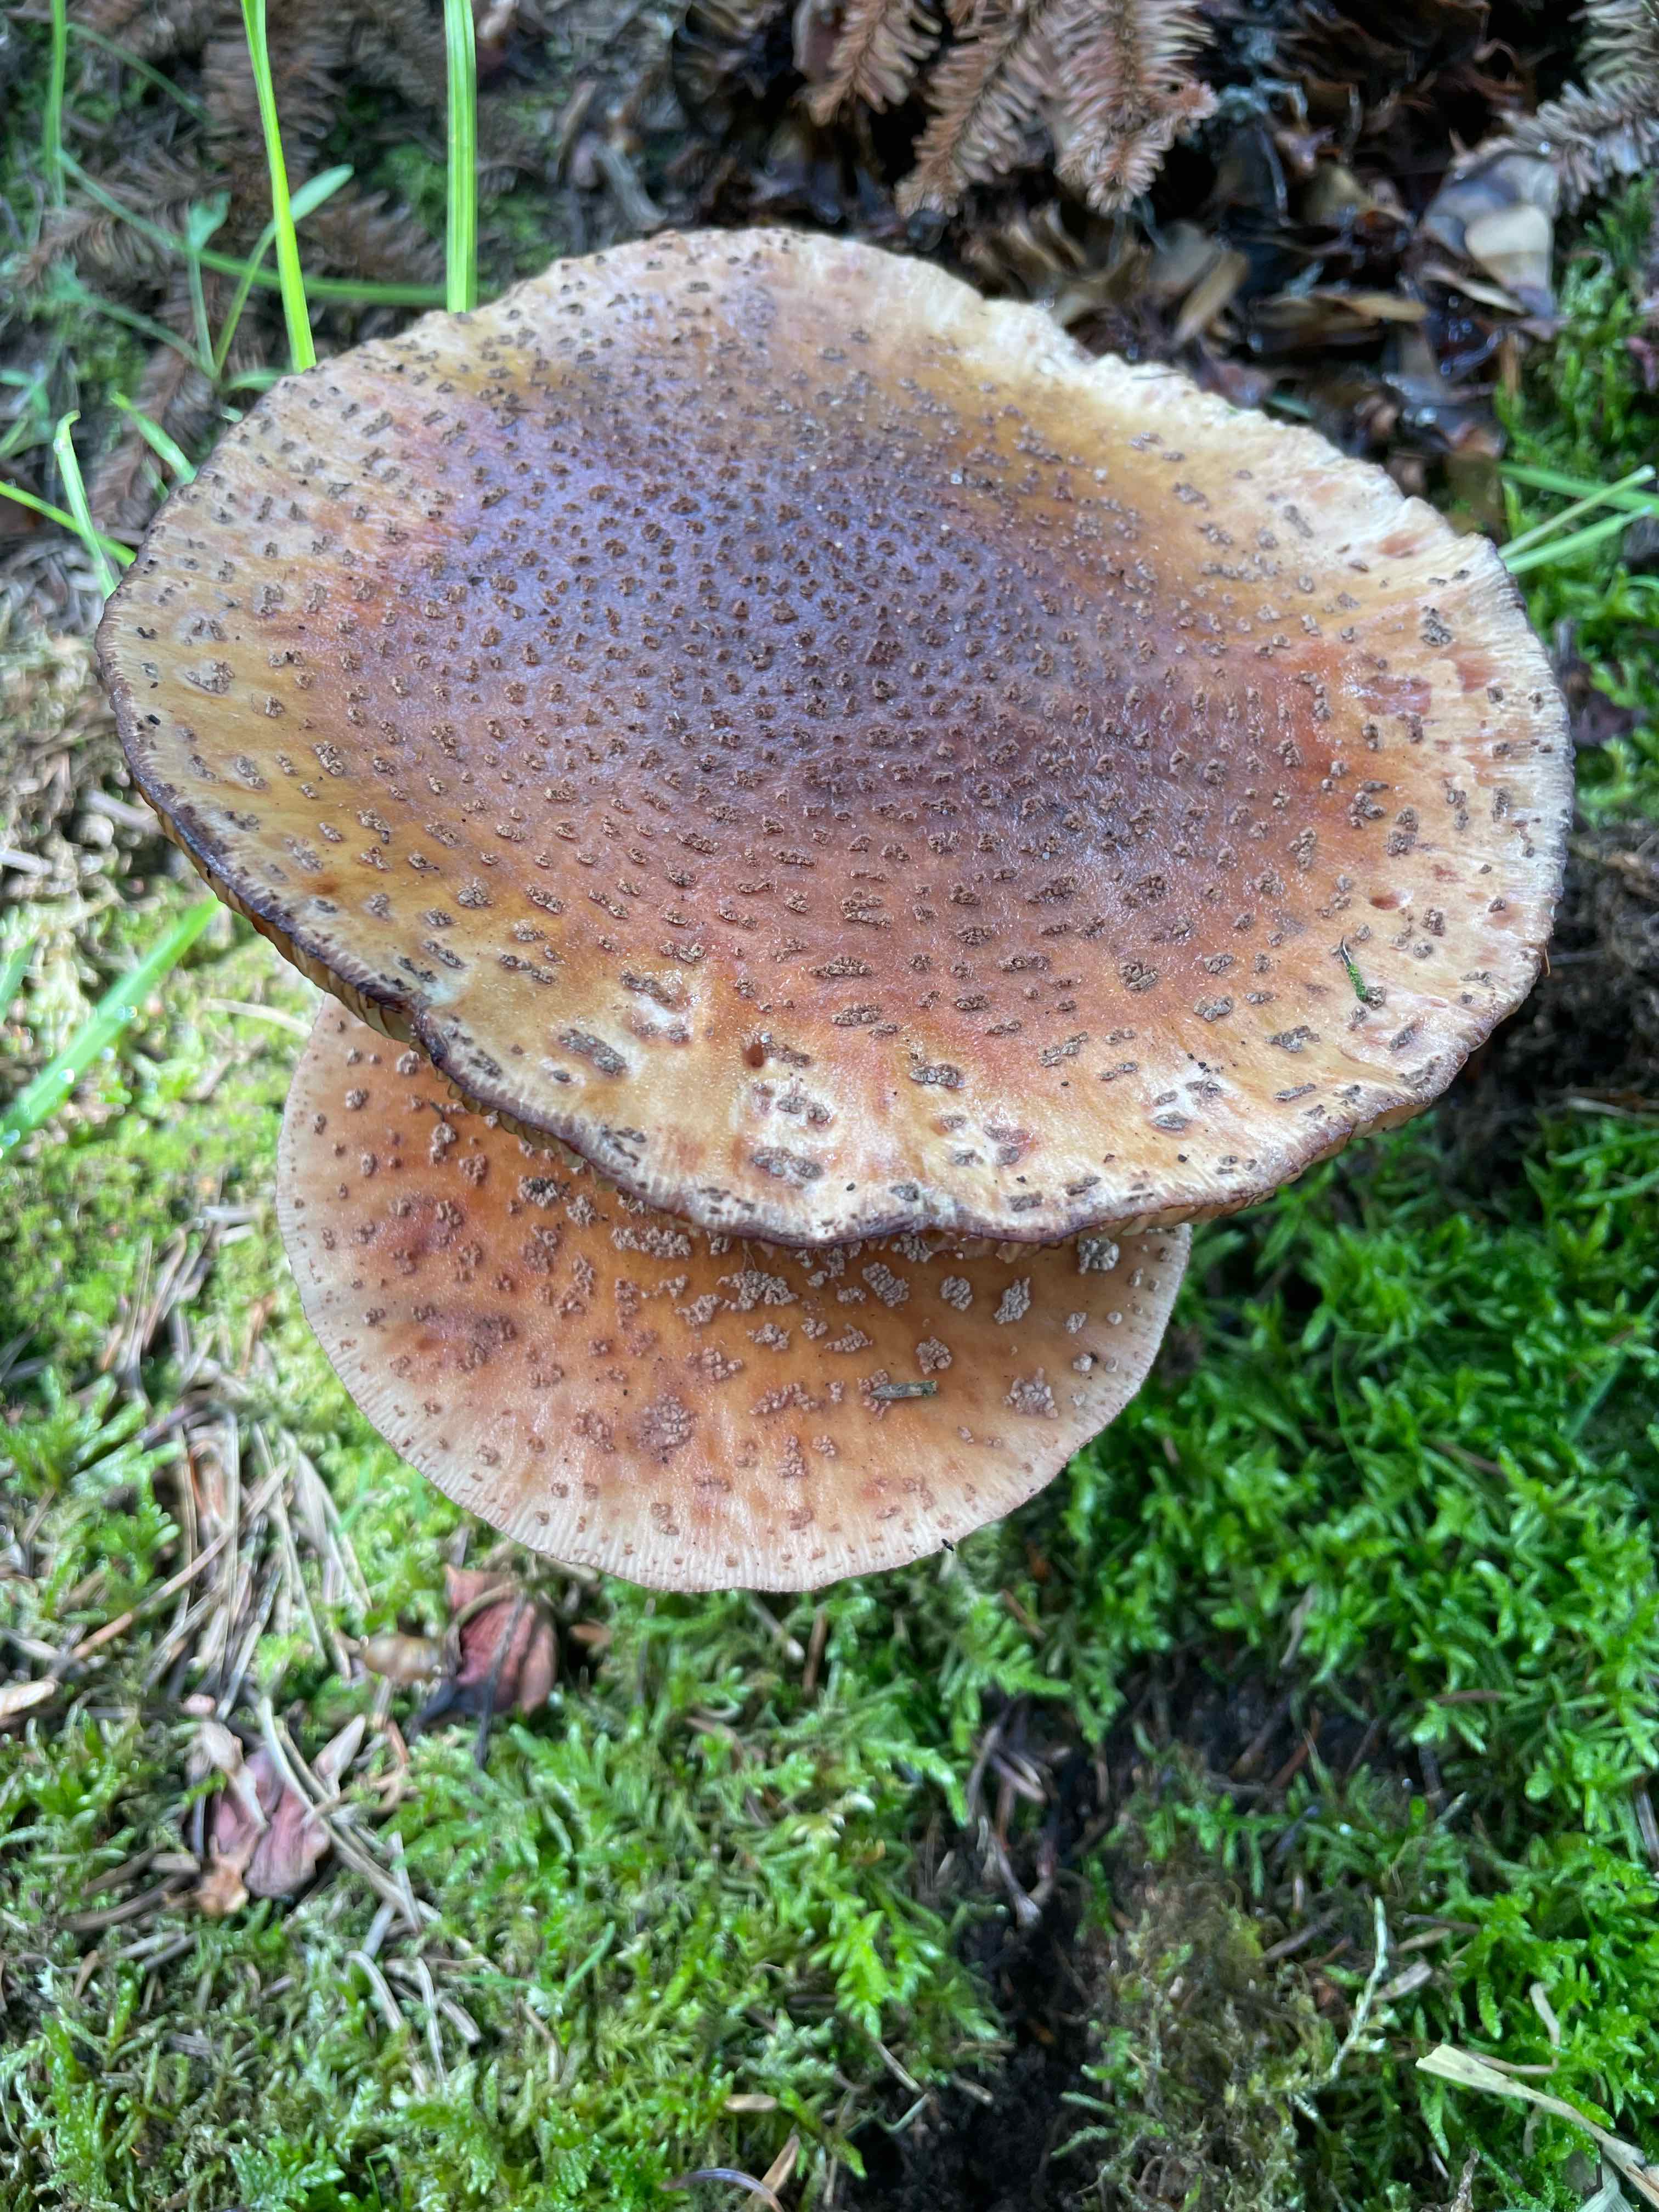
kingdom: Fungi
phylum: Basidiomycota
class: Agaricomycetes
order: Agaricales
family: Amanitaceae
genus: Amanita
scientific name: Amanita rubescens
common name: rødmende fluesvamp
